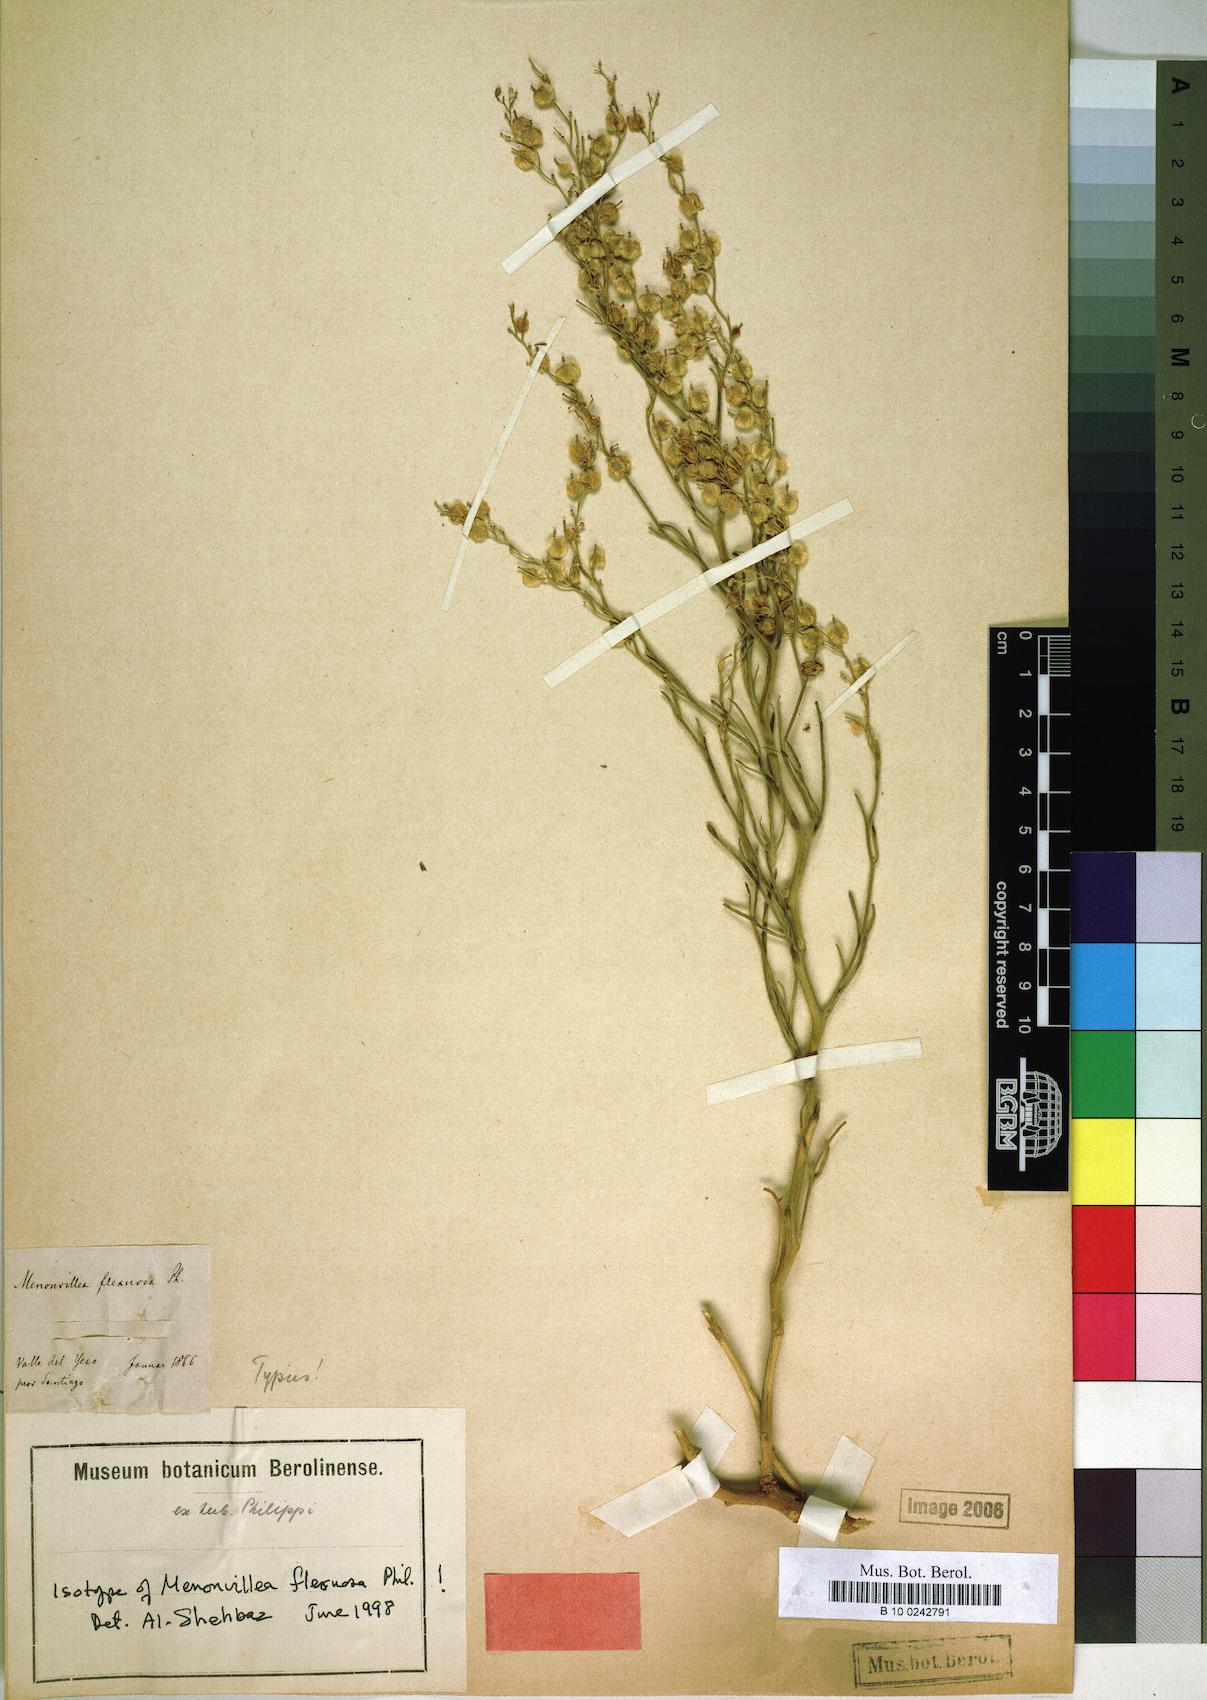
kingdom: Plantae
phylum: Tracheophyta
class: Magnoliopsida
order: Brassicales
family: Brassicaceae
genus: Menonvillea
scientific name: Menonvillea flexuosa
